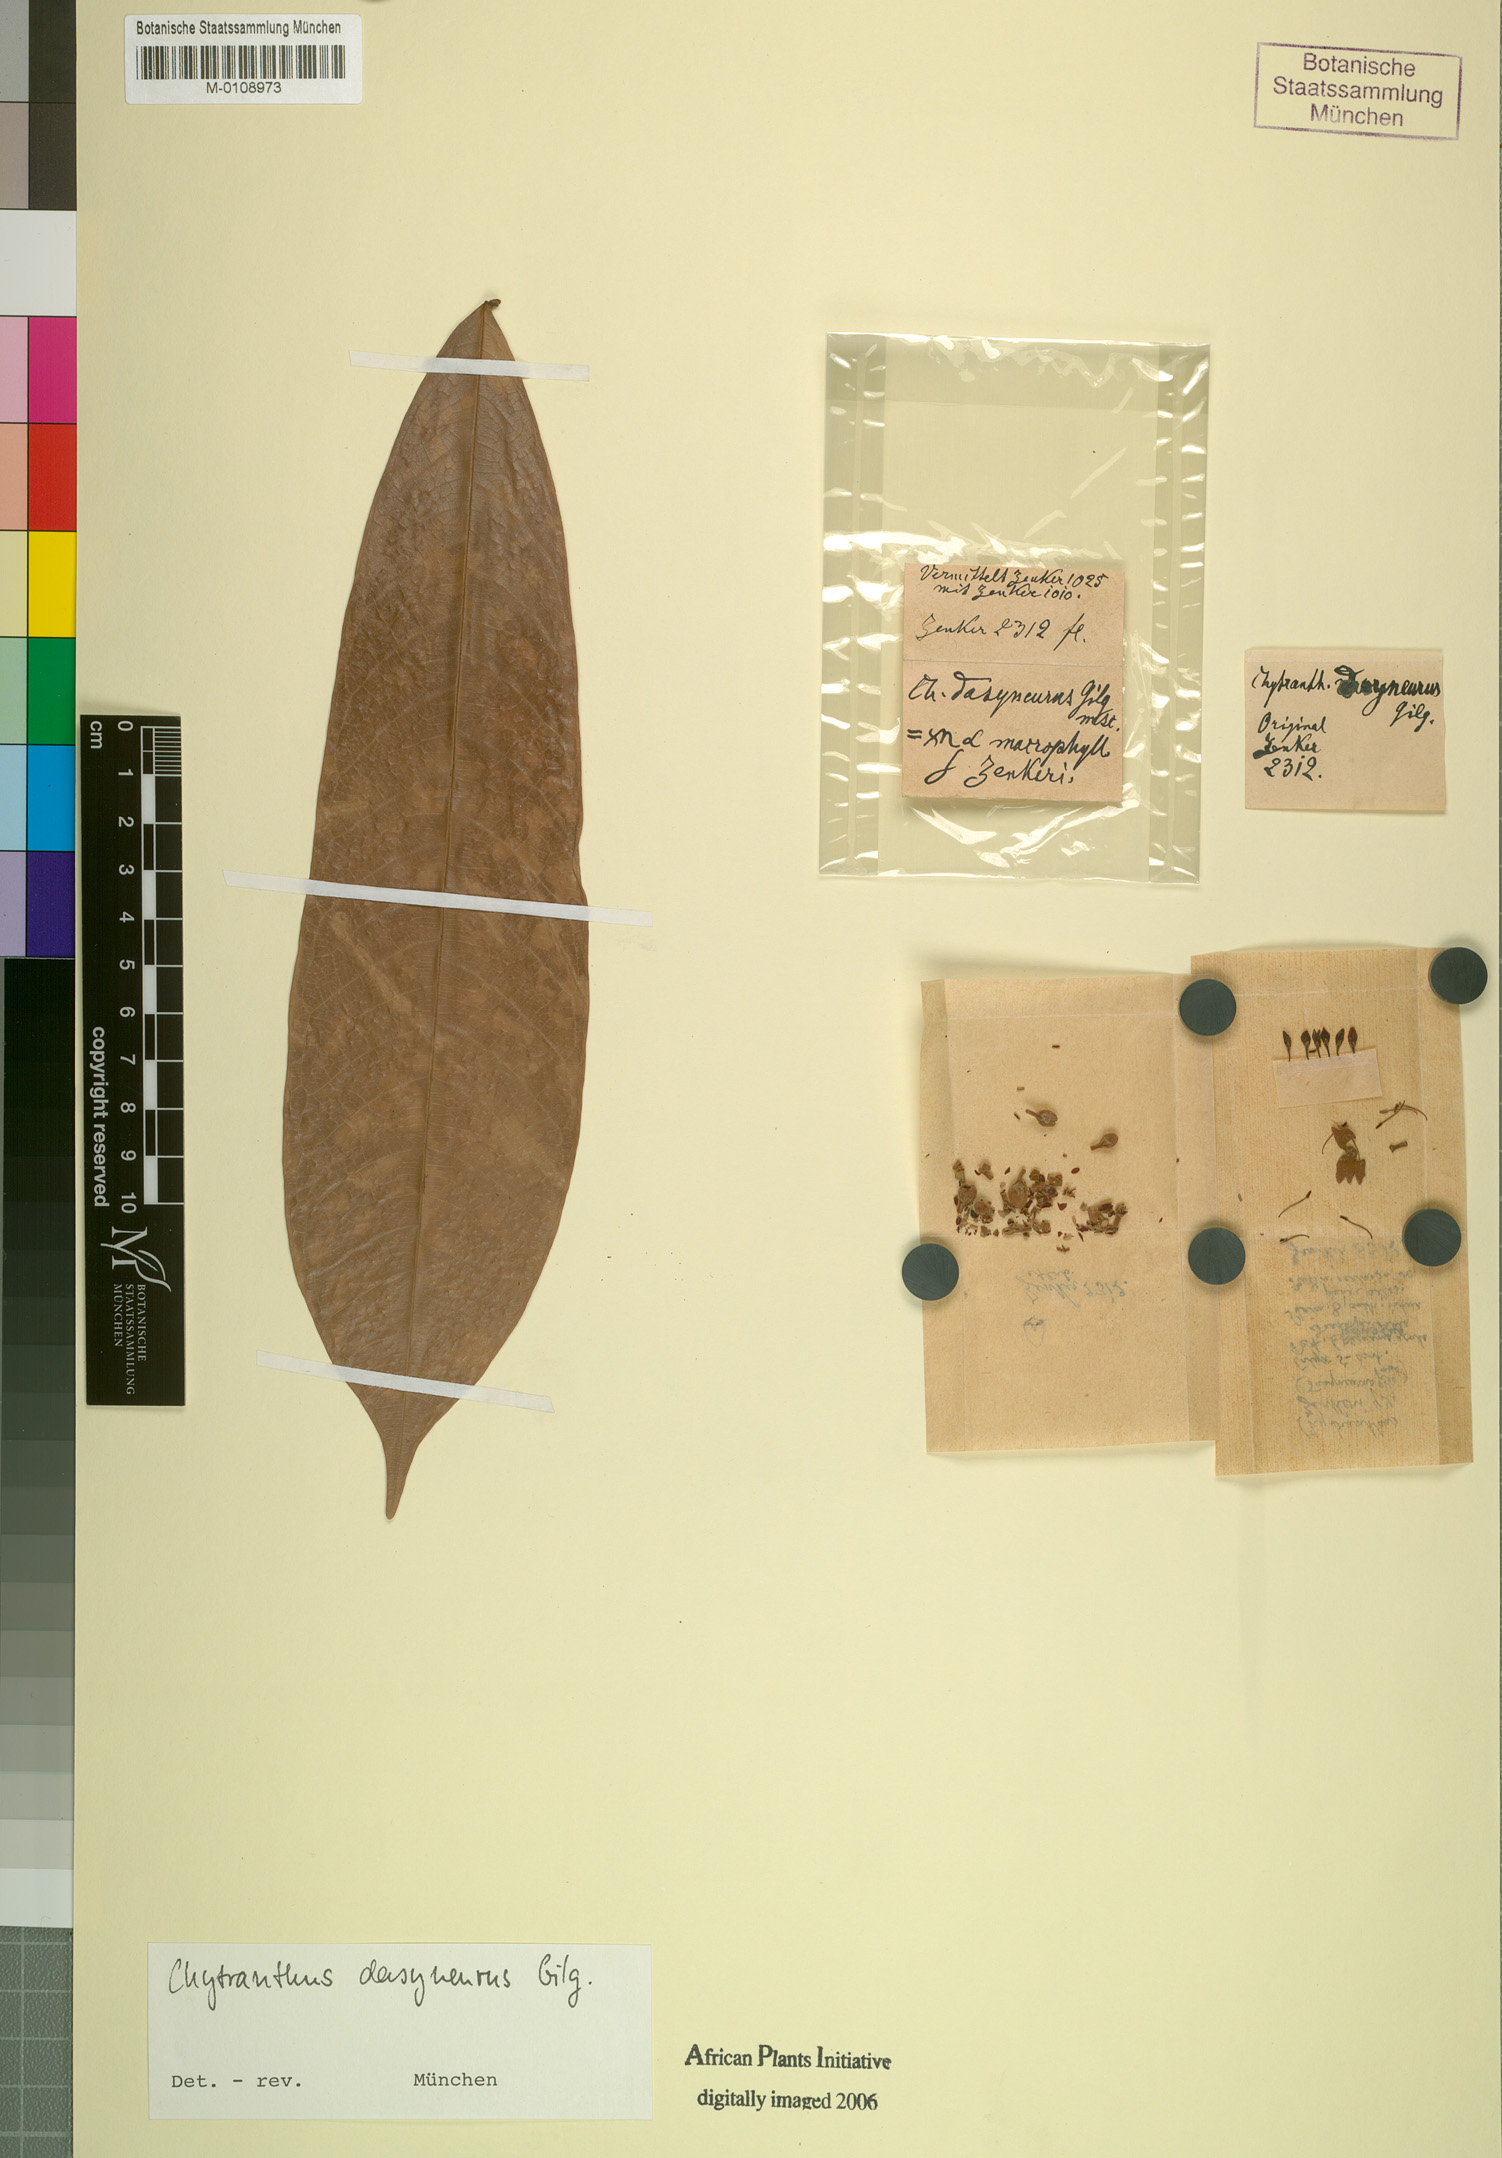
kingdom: Plantae
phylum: Tracheophyta
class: Magnoliopsida
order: Sapindales
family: Sapindaceae
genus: Chytranthus
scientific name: Chytranthus macrophyllus
